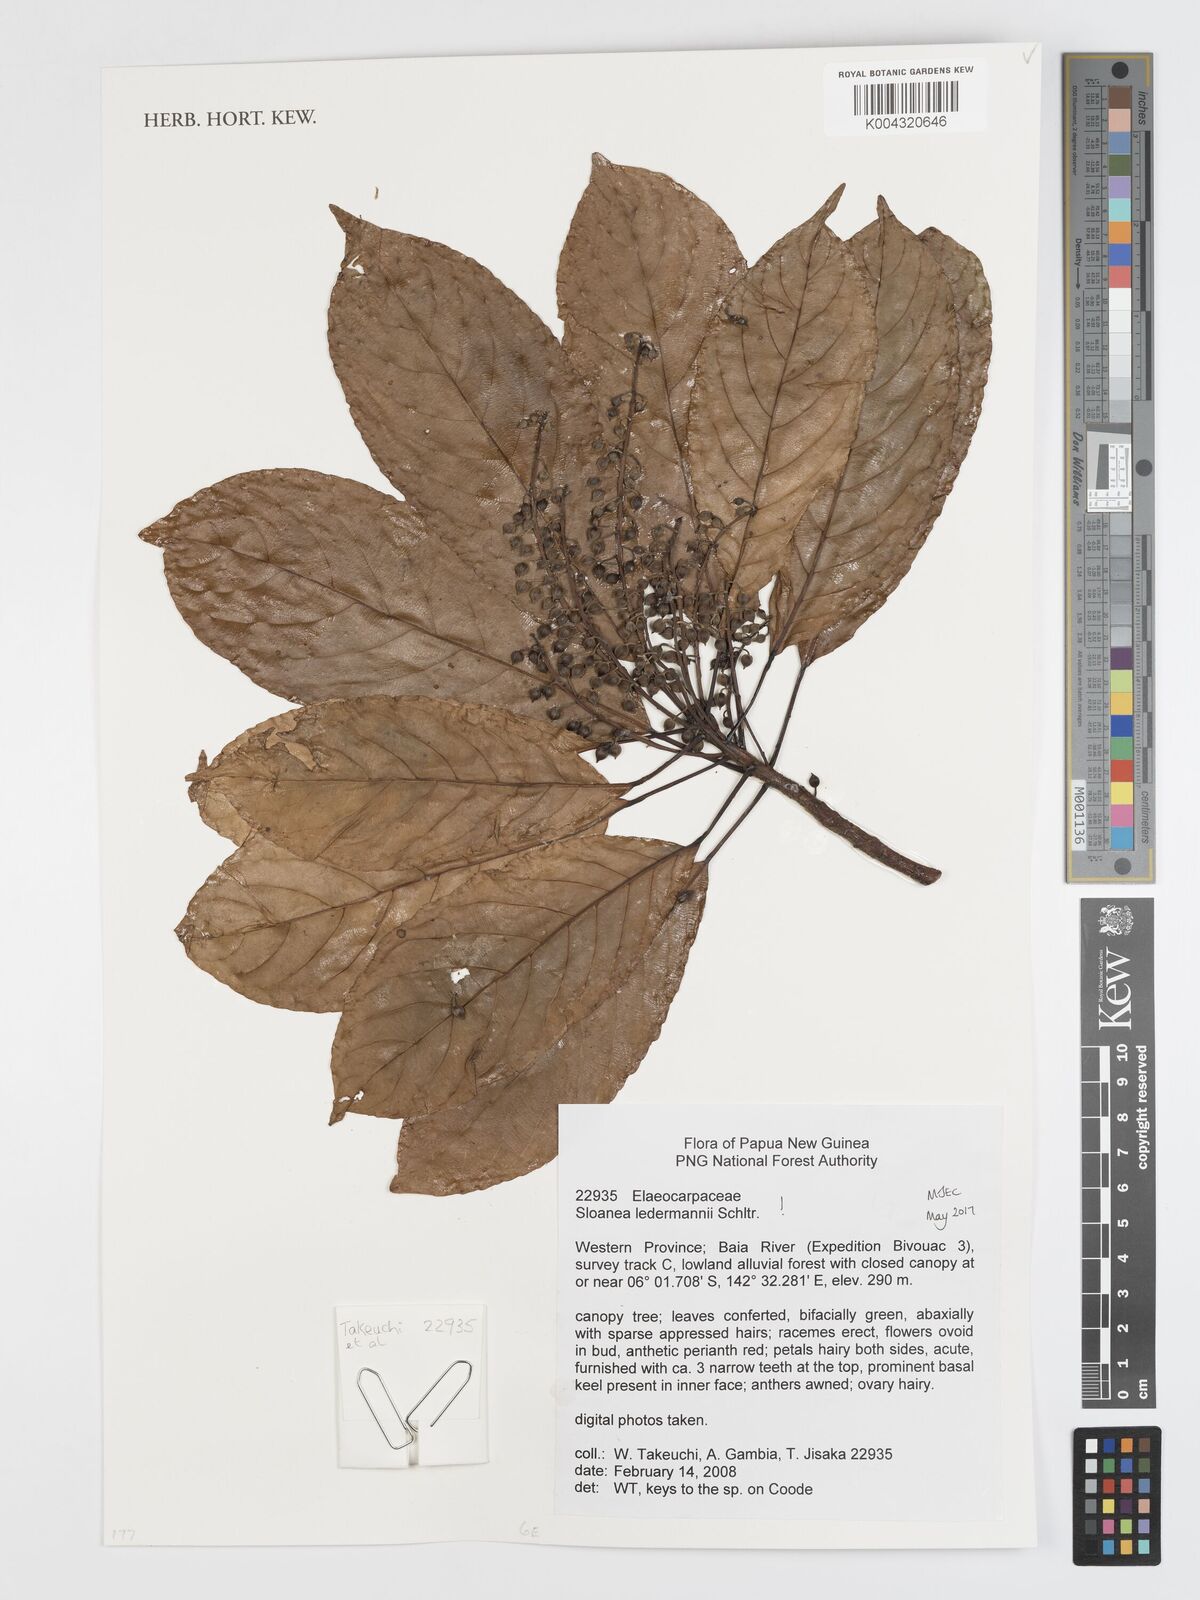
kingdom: Plantae
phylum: Tracheophyta
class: Magnoliopsida
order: Oxalidales
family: Elaeocarpaceae
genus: Sloanea
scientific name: Sloanea ledermannii
